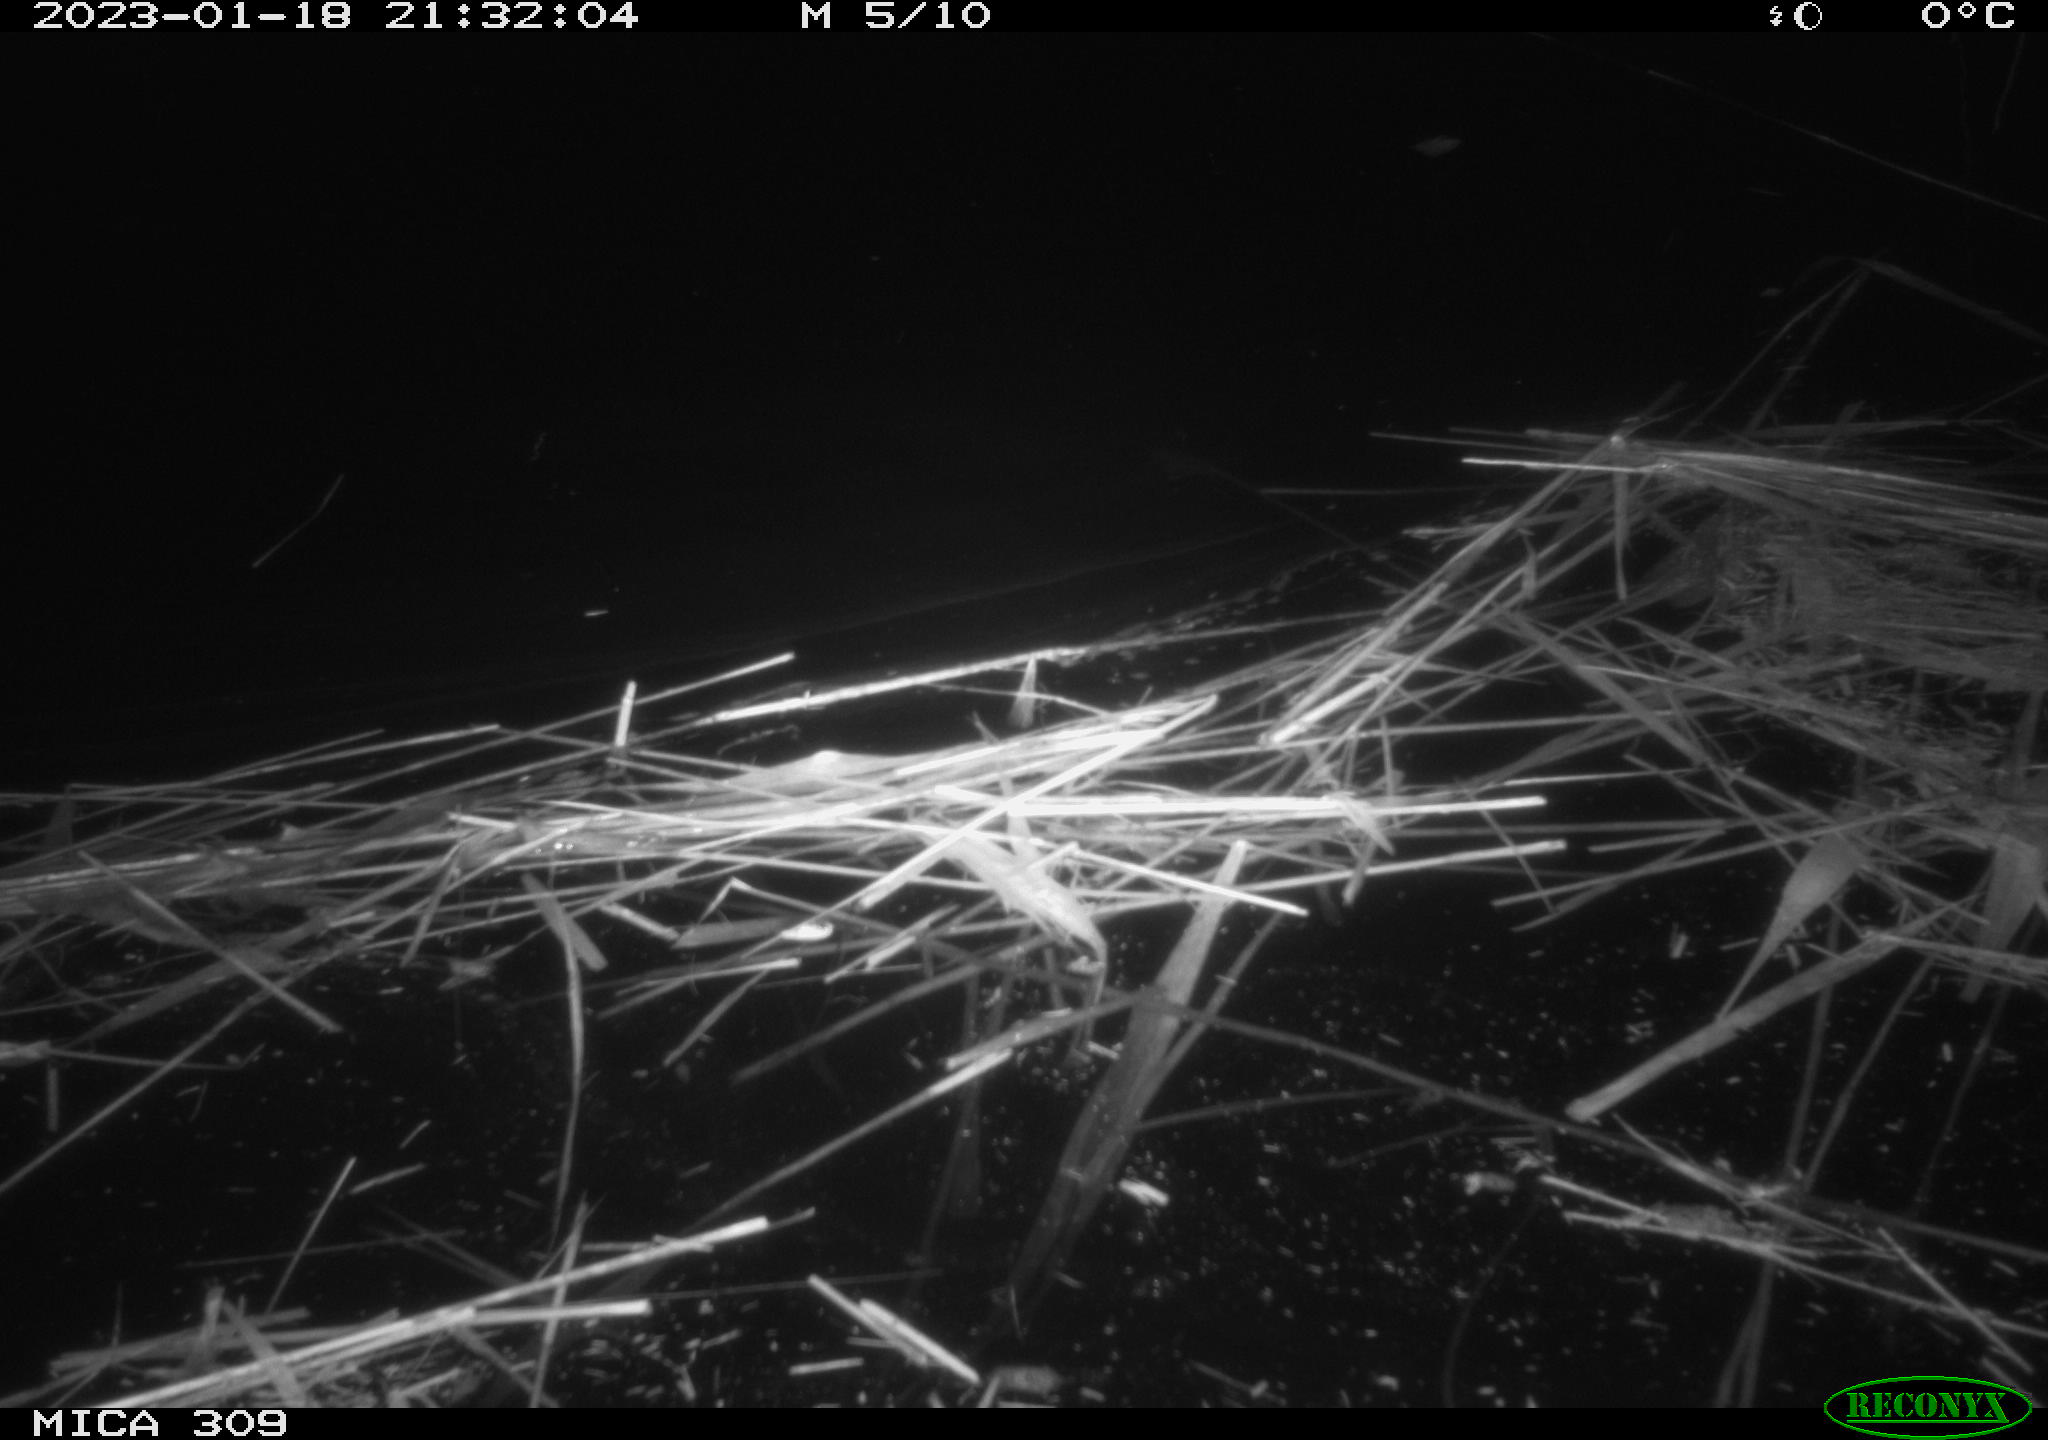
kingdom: Animalia
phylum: Chordata
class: Mammalia
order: Rodentia
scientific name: Rodentia
